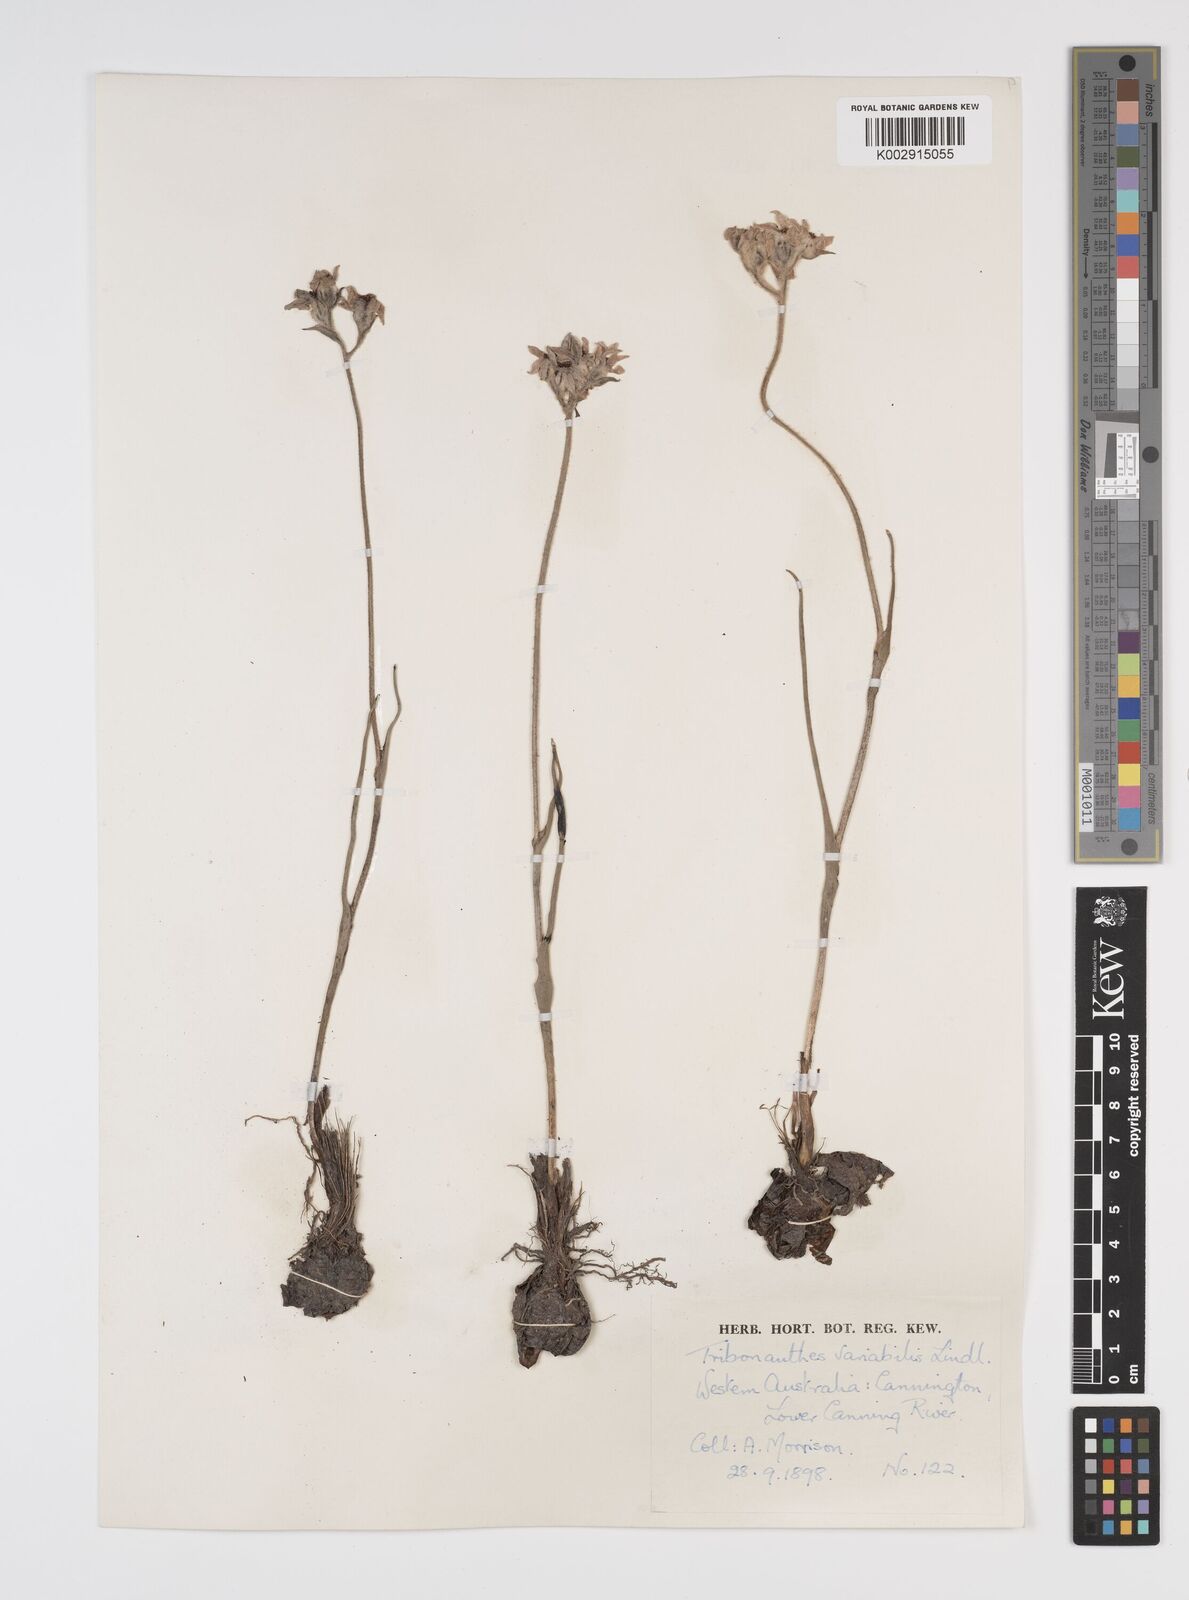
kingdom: Plantae
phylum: Tracheophyta
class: Liliopsida
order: Commelinales
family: Haemodoraceae
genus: Tribonanthes
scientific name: Tribonanthes australis
